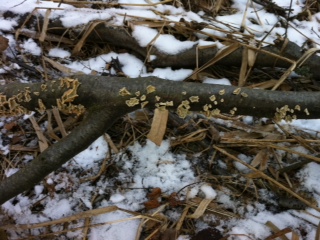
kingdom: Fungi
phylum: Basidiomycota
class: Agaricomycetes
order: Amylocorticiales
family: Amylocorticiaceae
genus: Plicaturopsis
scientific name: Plicaturopsis crispa
